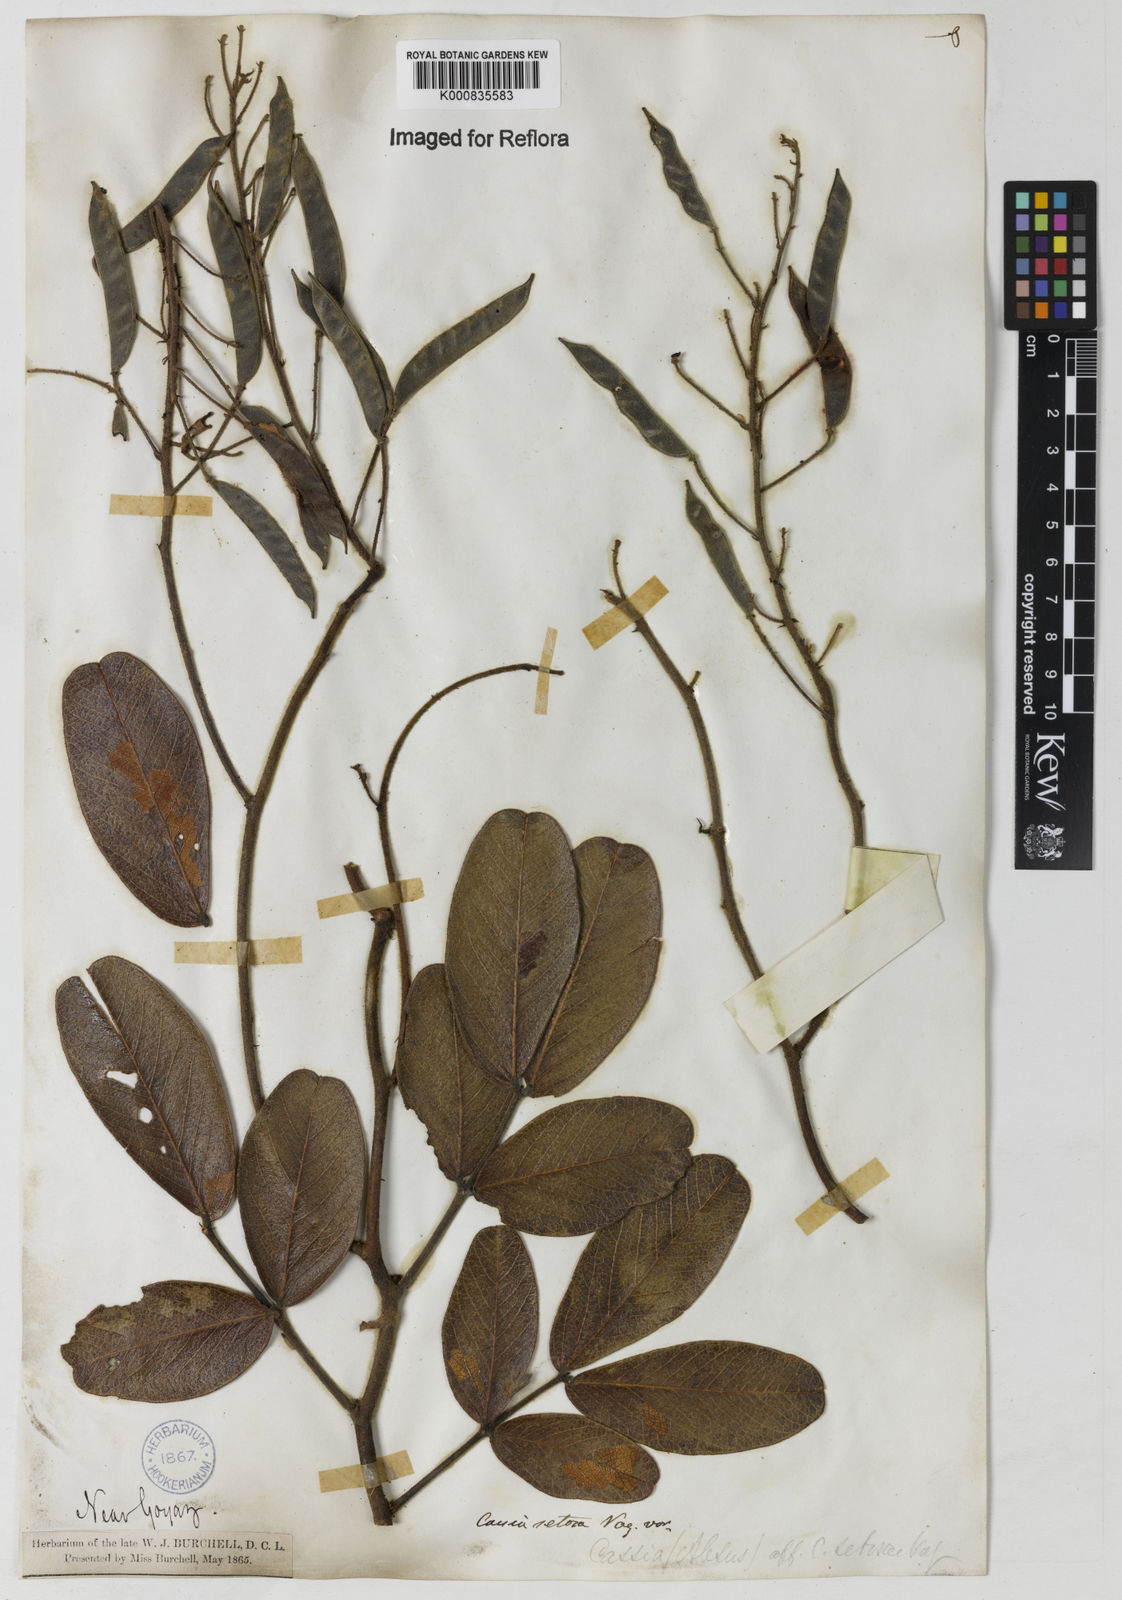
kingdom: Plantae
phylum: Tracheophyta
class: Magnoliopsida
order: Fabales
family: Fabaceae
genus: Chamaecrista
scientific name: Chamaecrista setosa
